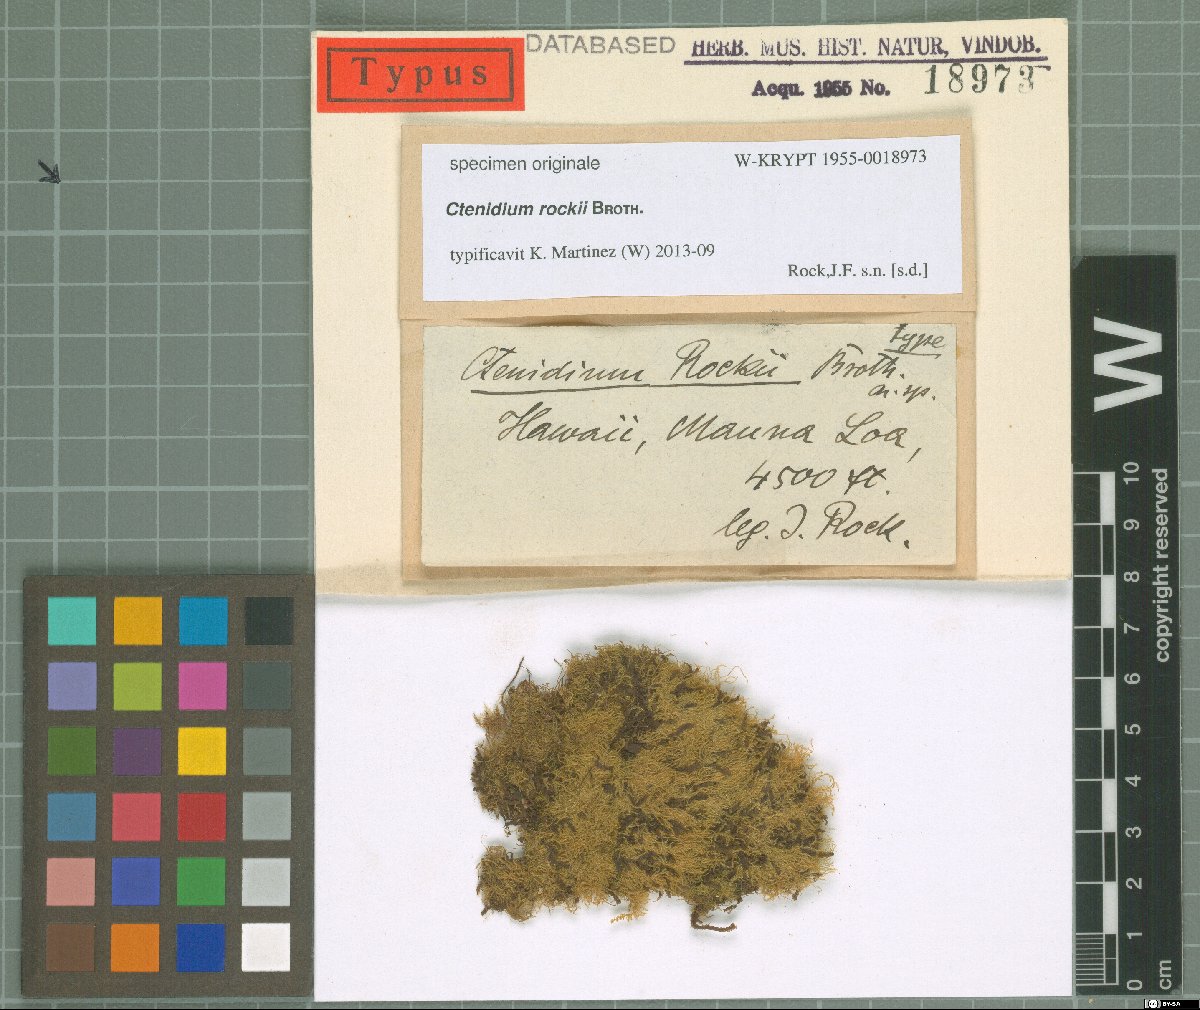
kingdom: Plantae
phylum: Tracheophyta
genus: Ctenidium
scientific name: Ctenidium
